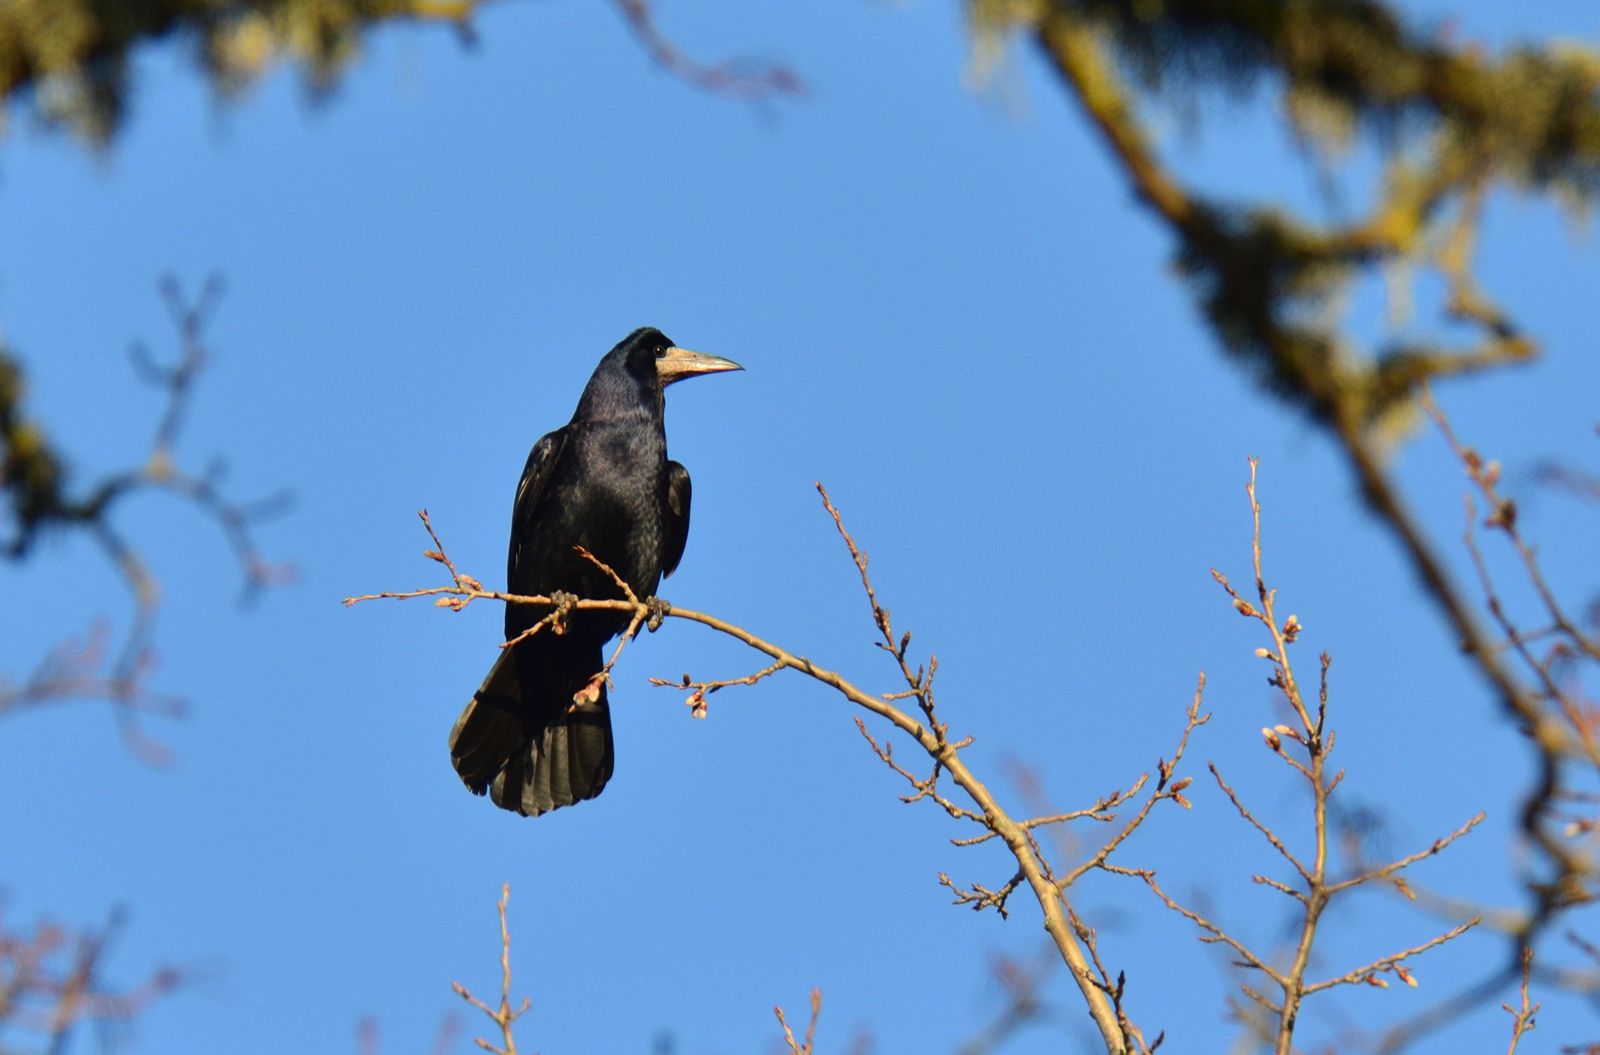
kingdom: Animalia
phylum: Chordata
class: Aves
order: Passeriformes
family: Corvidae
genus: Corvus
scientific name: Corvus frugilegus
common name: Rook
